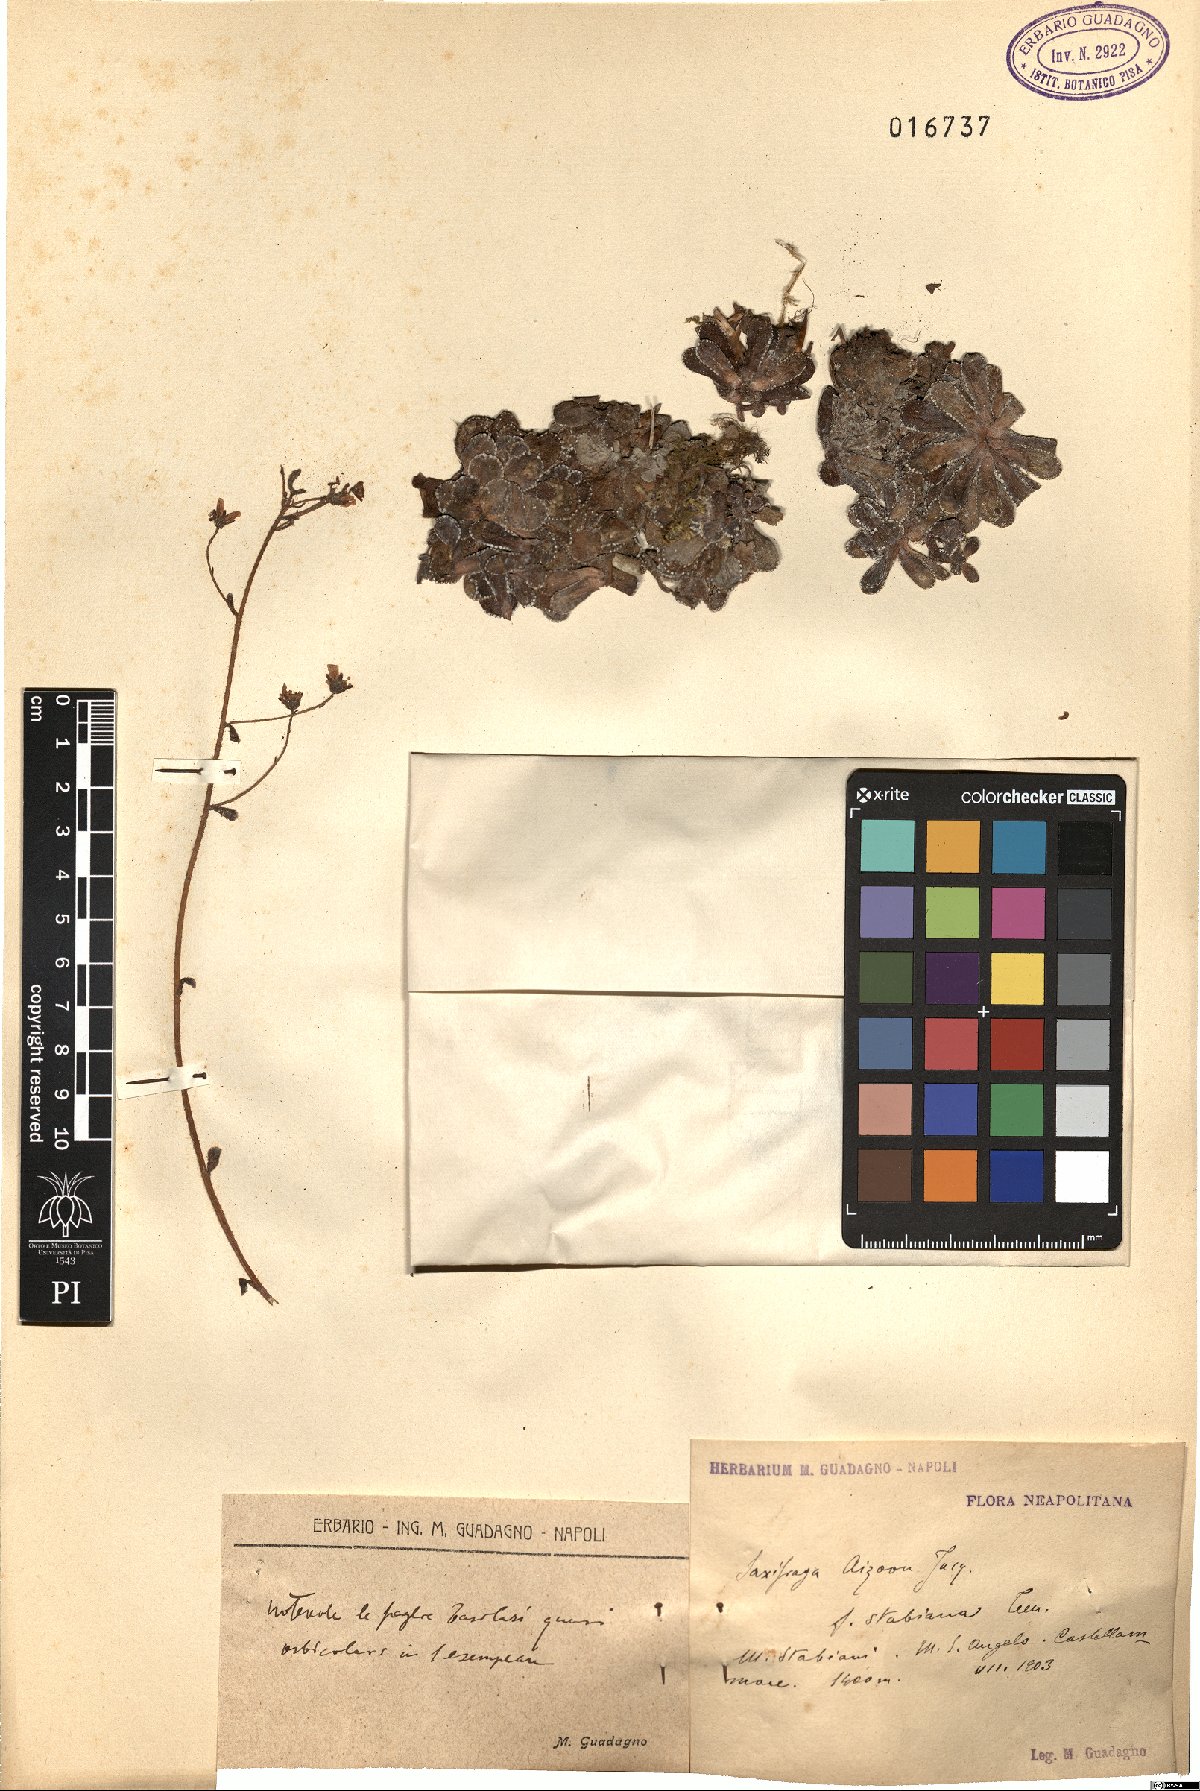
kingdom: Plantae
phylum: Tracheophyta
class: Magnoliopsida
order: Saxifragales
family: Saxifragaceae
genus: Saxifraga
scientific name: Saxifraga paniculata
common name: Livelong saxifrage
